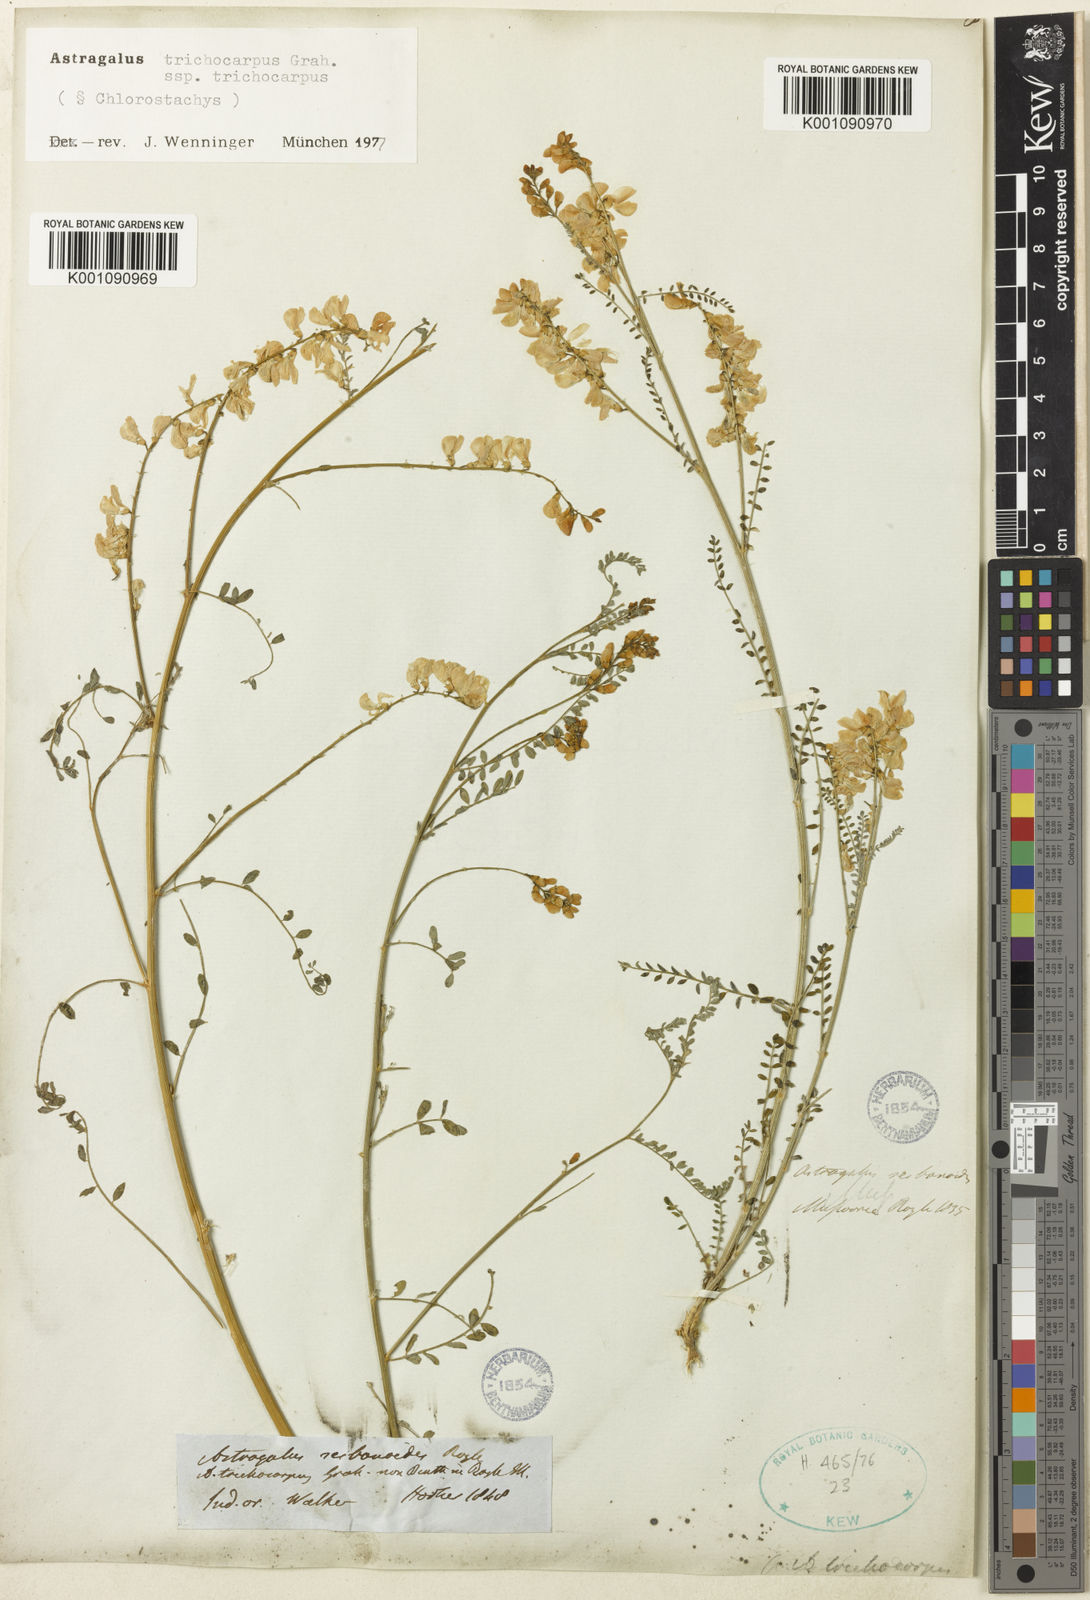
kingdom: Plantae
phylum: Tracheophyta
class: Magnoliopsida
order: Fabales
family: Fabaceae
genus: Astragalus
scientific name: Astragalus
